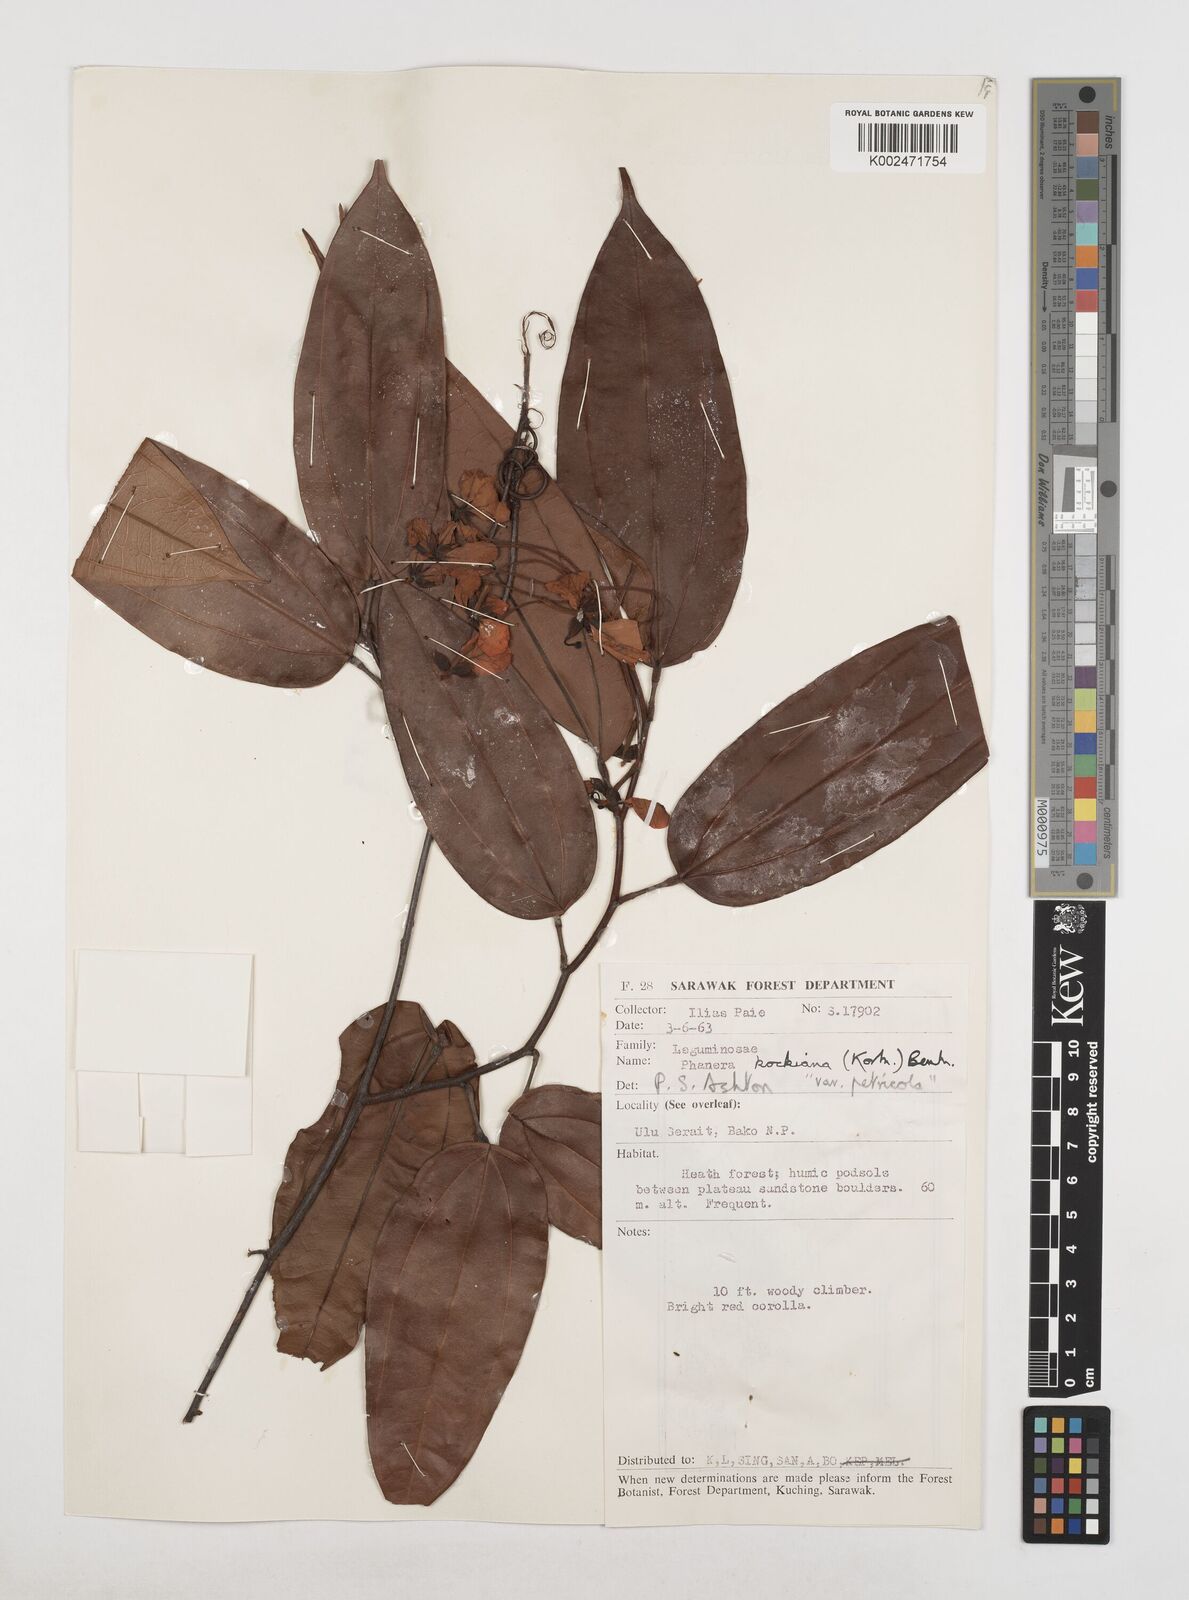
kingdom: Plantae
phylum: Tracheophyta
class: Magnoliopsida
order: Fabales
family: Fabaceae
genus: Phanera
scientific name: Phanera kockiana
